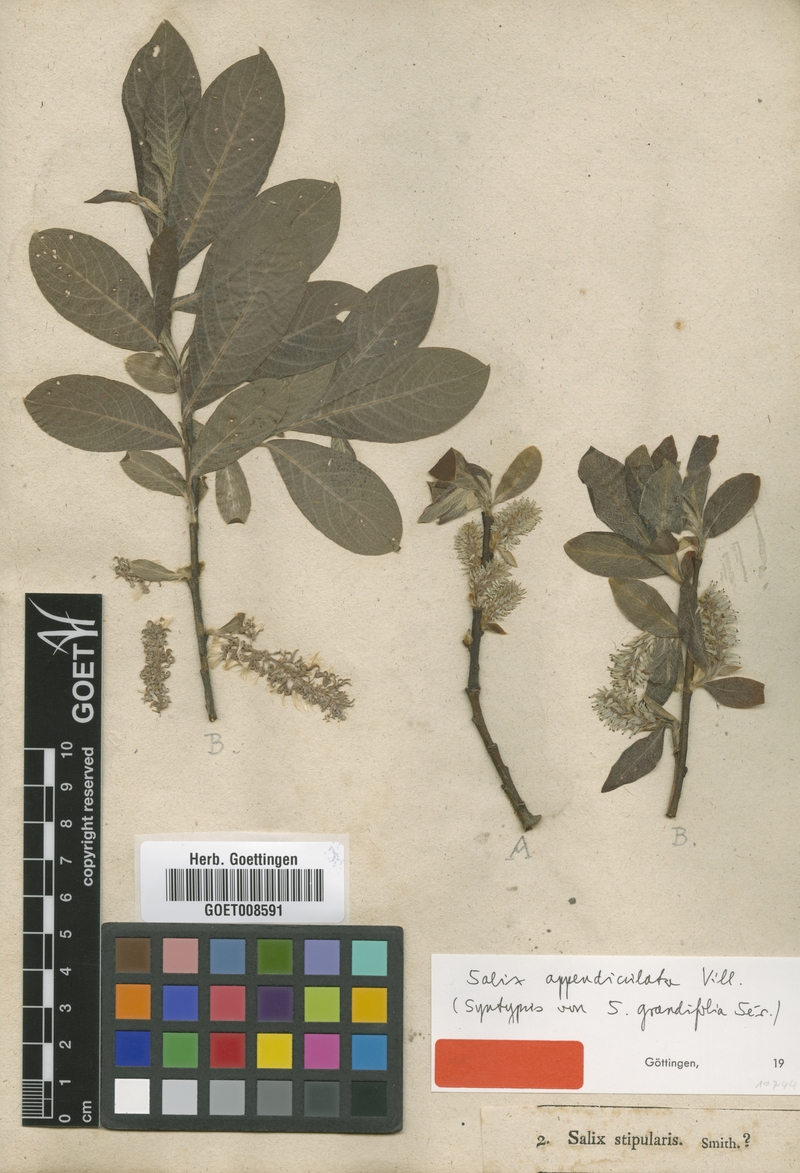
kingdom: Plantae
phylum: Tracheophyta
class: Magnoliopsida
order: Malpighiales
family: Salicaceae
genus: Salix
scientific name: Salix appendiculata
